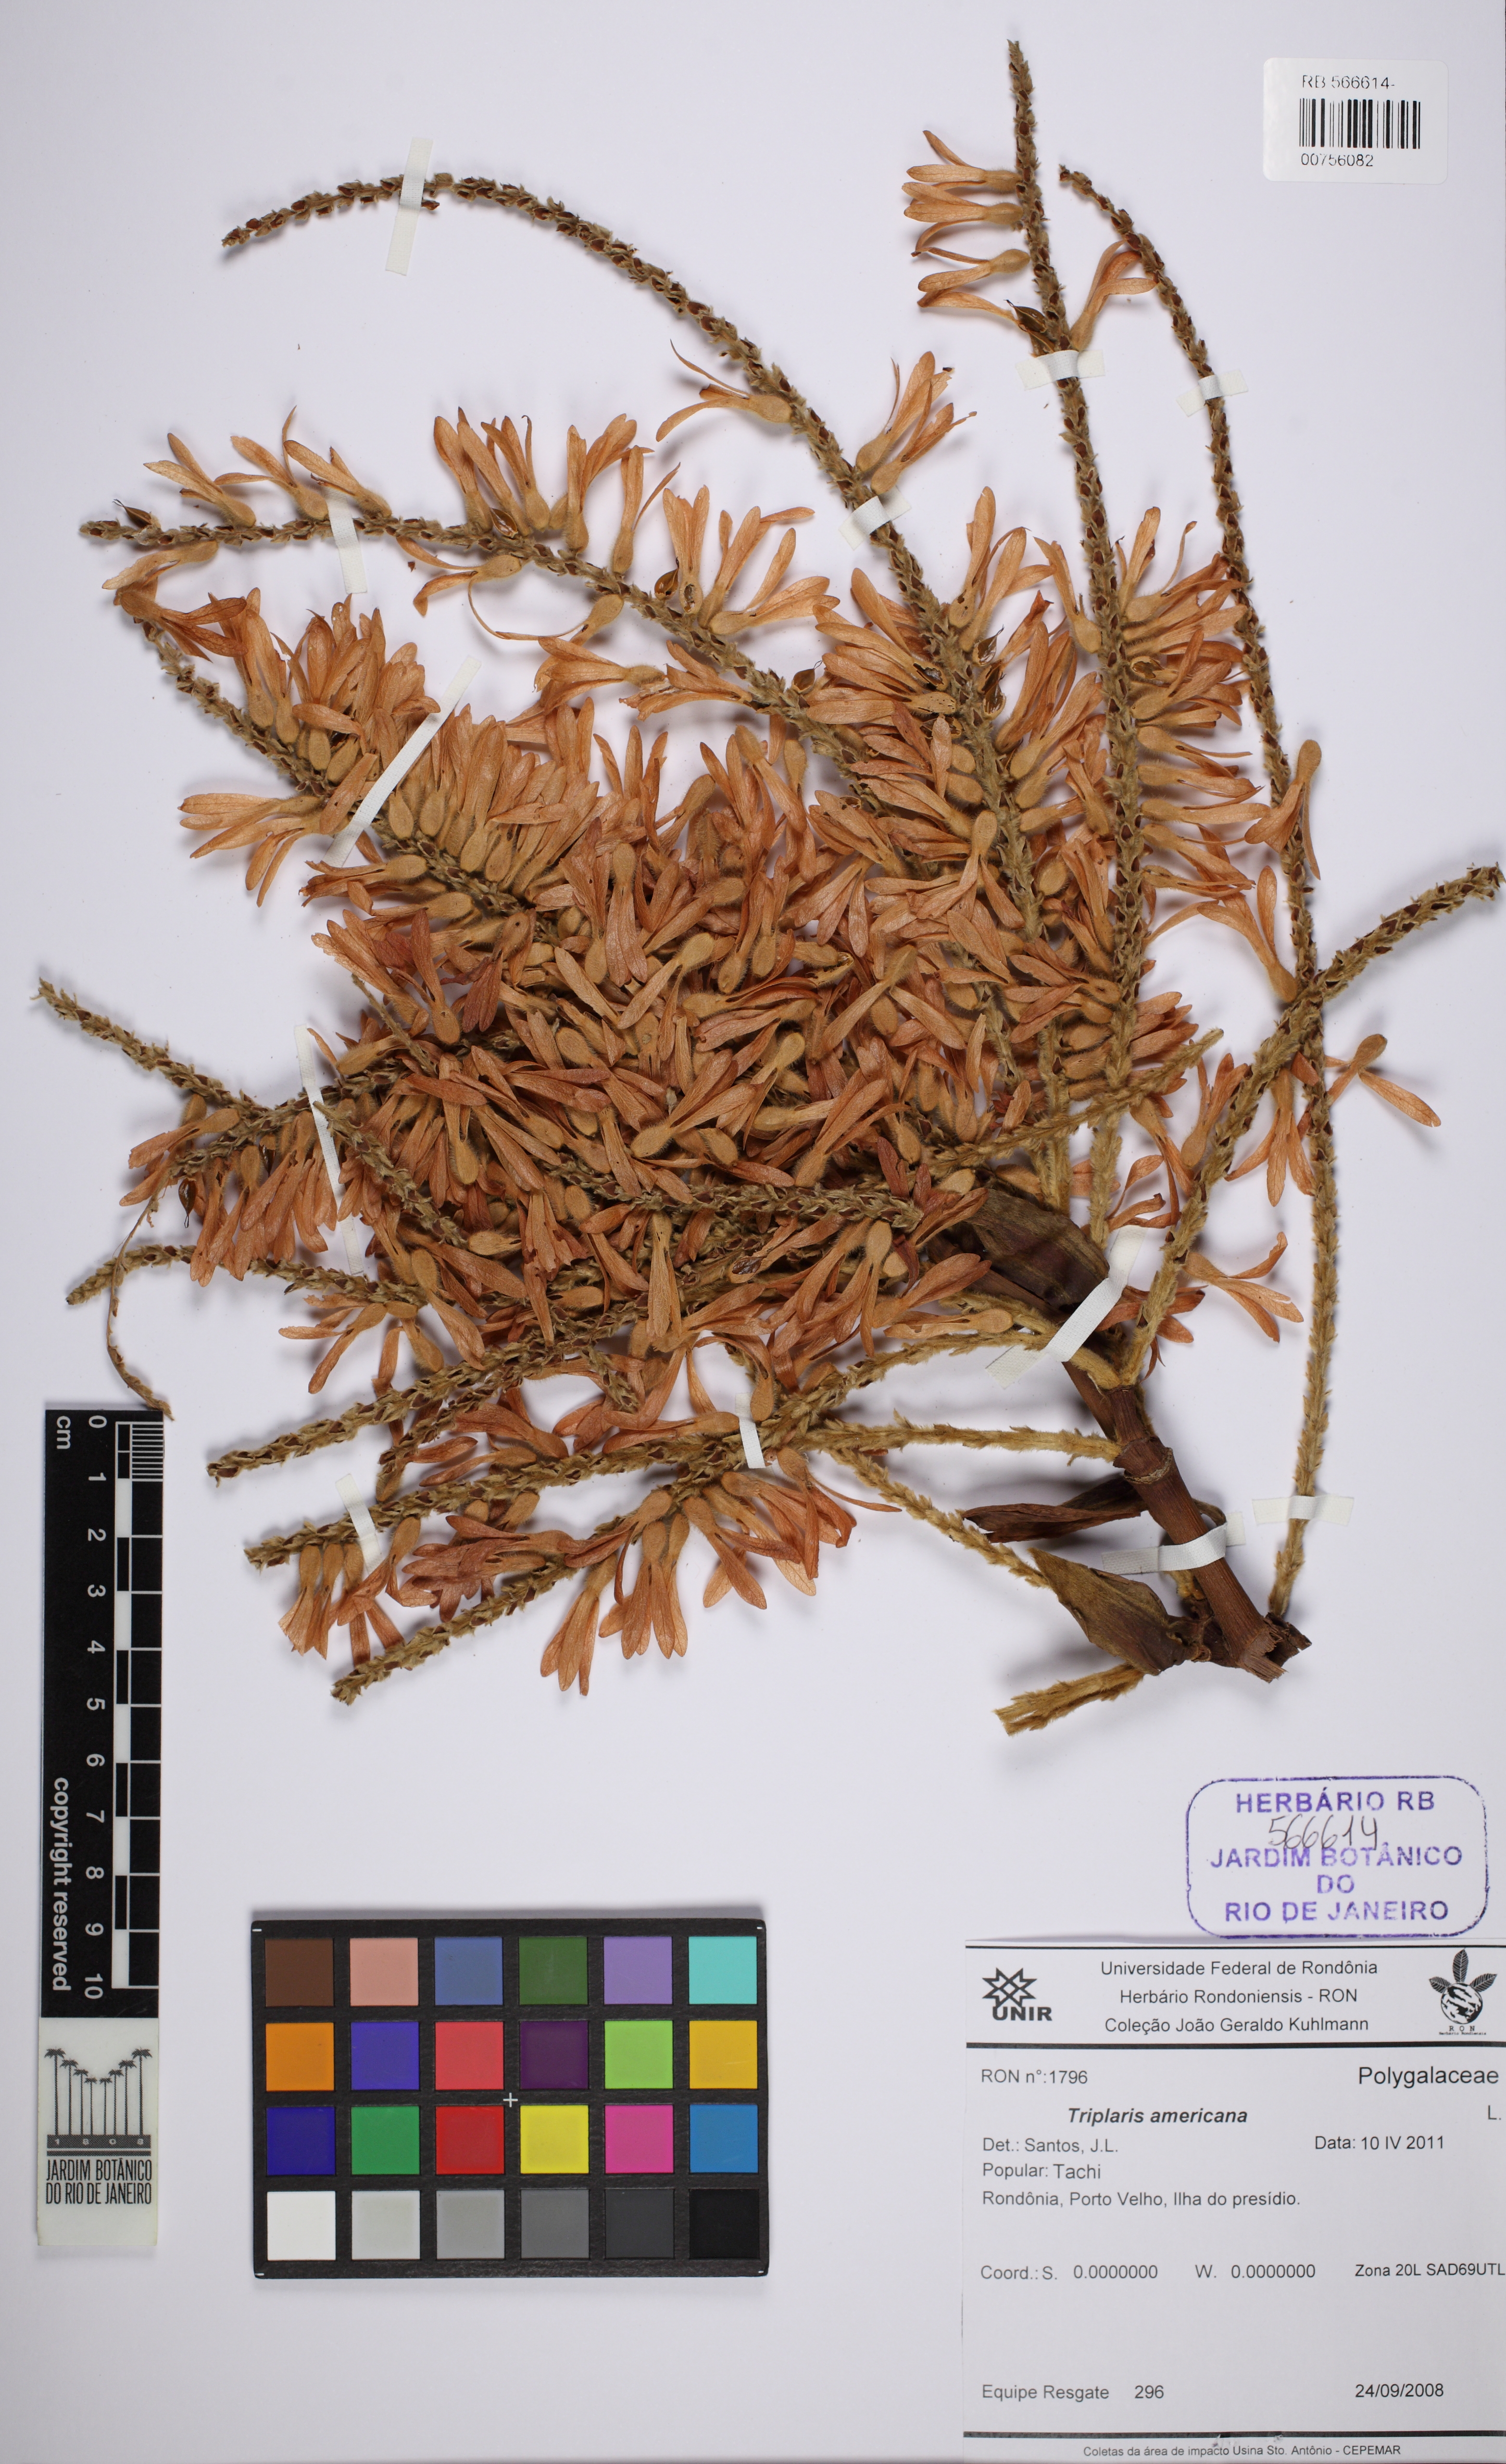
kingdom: Plantae
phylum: Tracheophyta
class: Magnoliopsida
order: Caryophyllales
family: Polygonaceae
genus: Triplaris
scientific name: Triplaris americana
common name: Ant-tree
